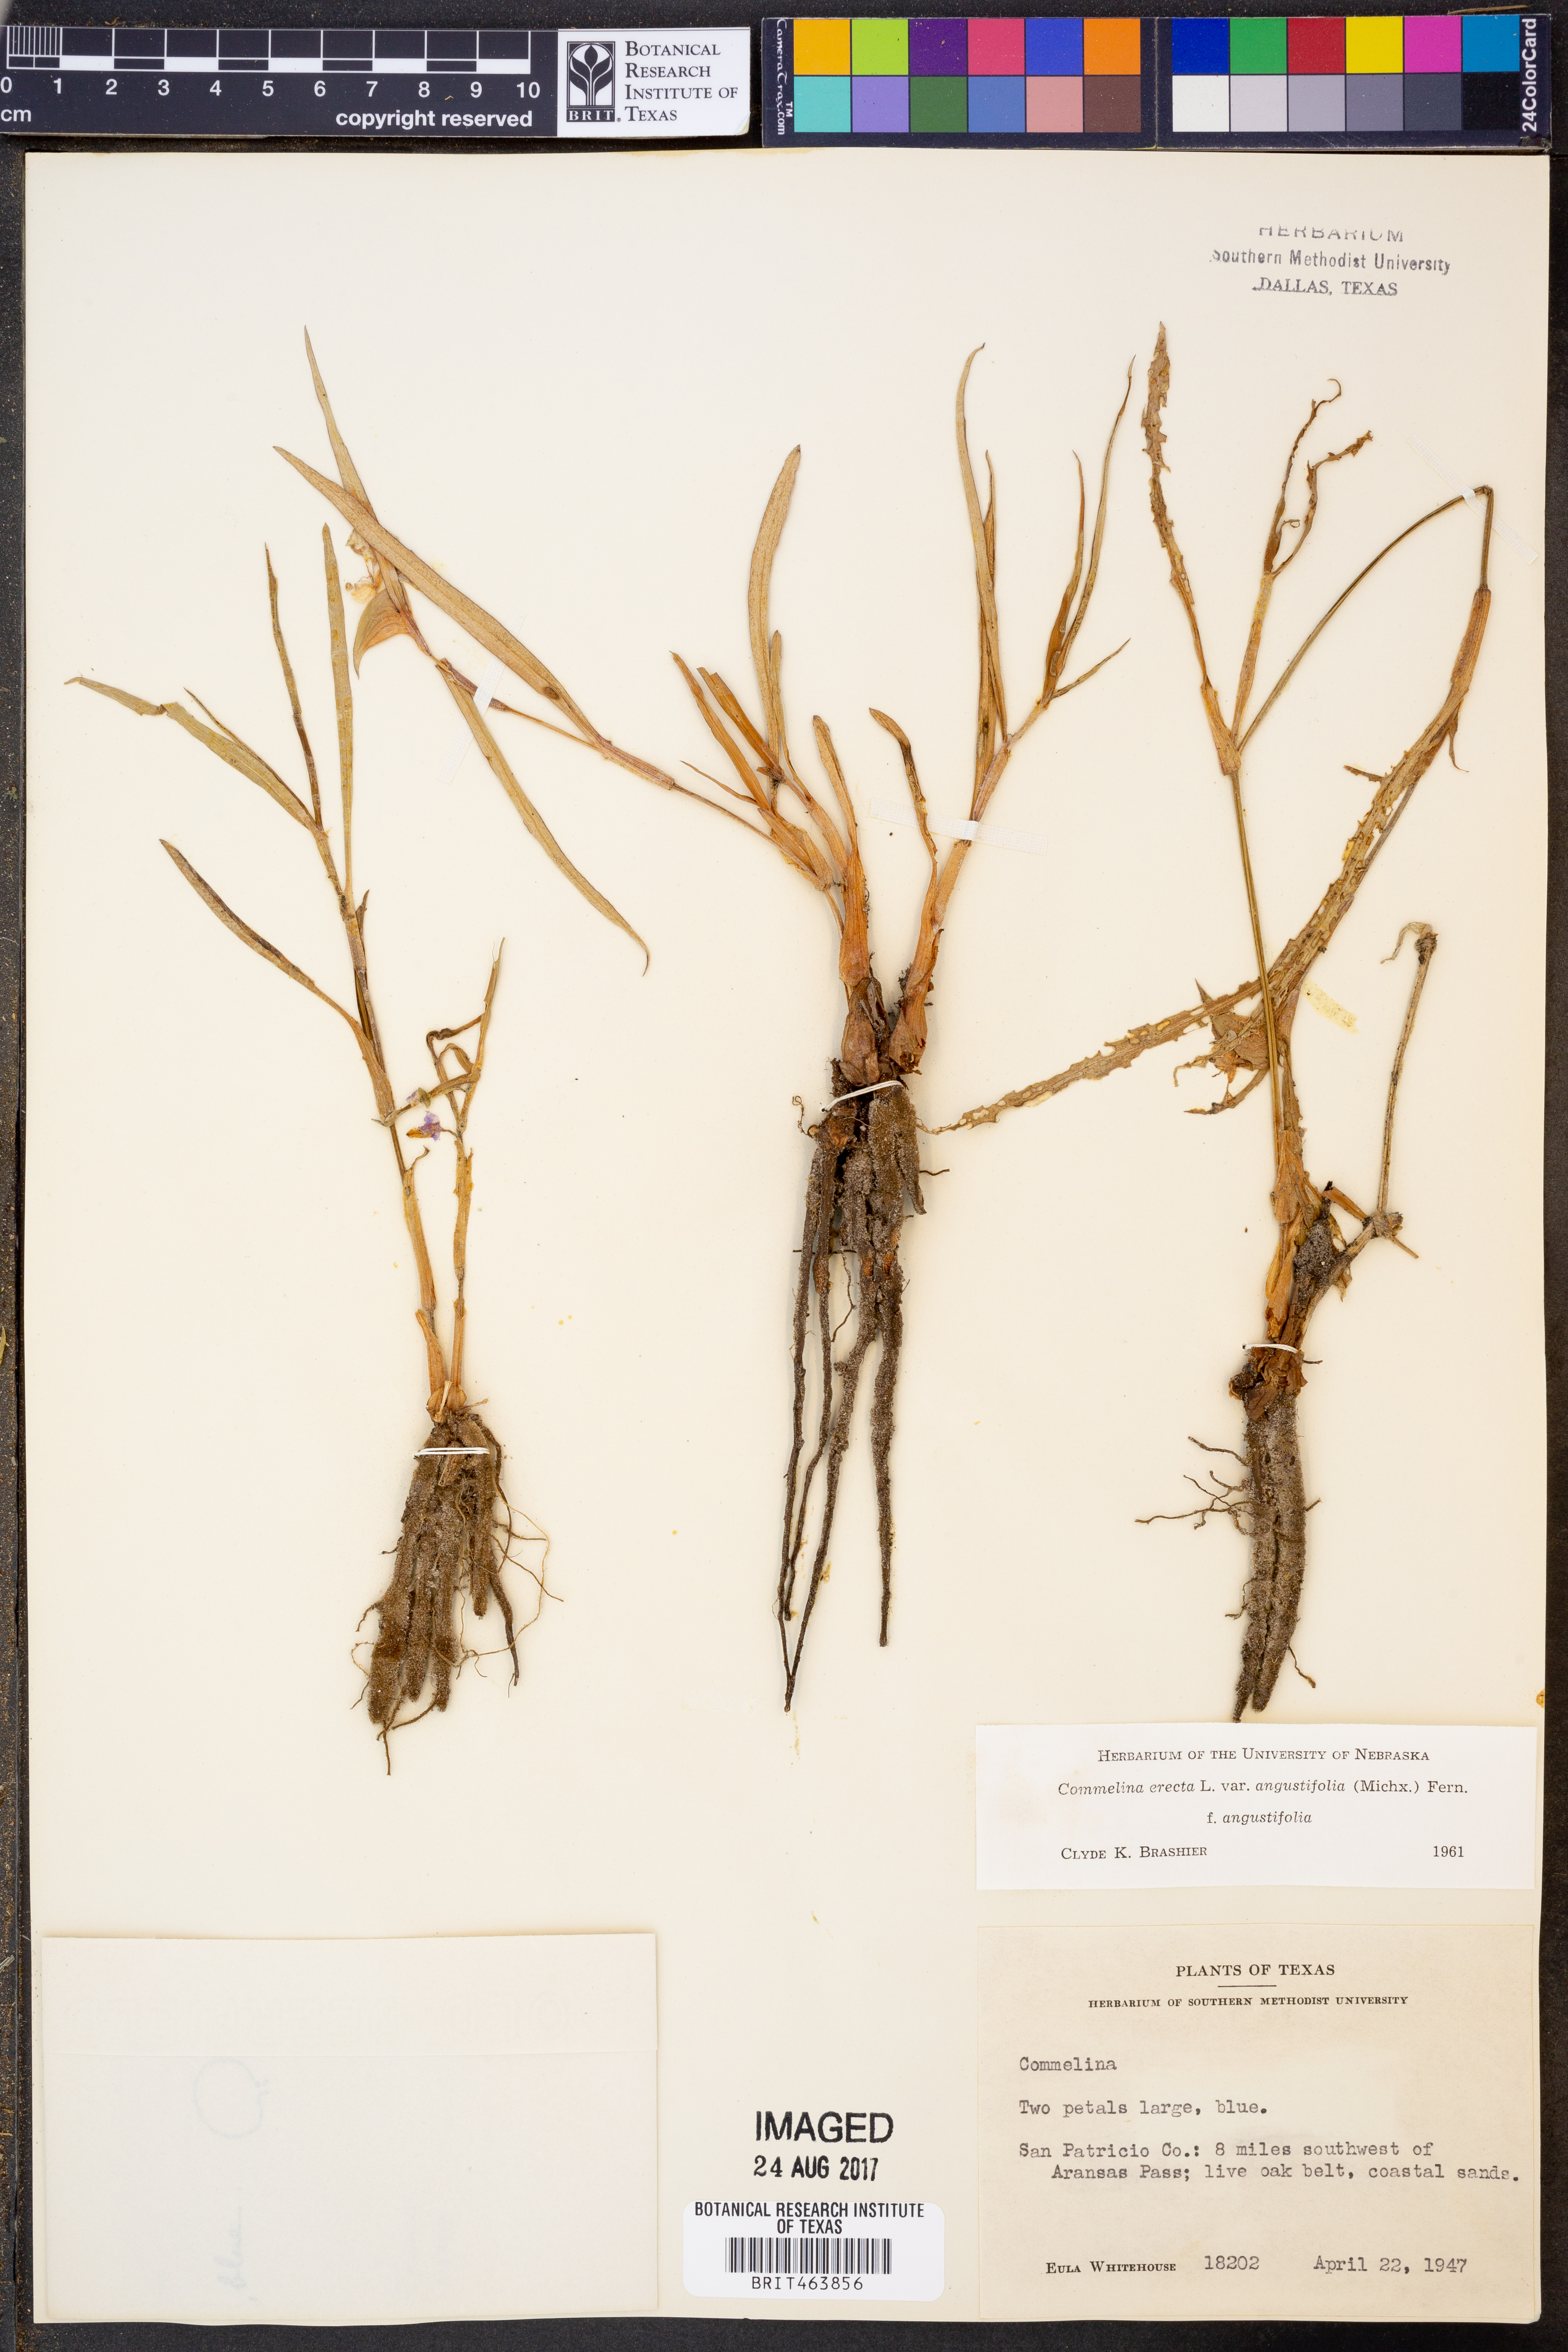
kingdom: Plantae
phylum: Tracheophyta
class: Liliopsida
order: Commelinales
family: Commelinaceae
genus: Commelina
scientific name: Commelina erecta
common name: Blousel blommetjie
